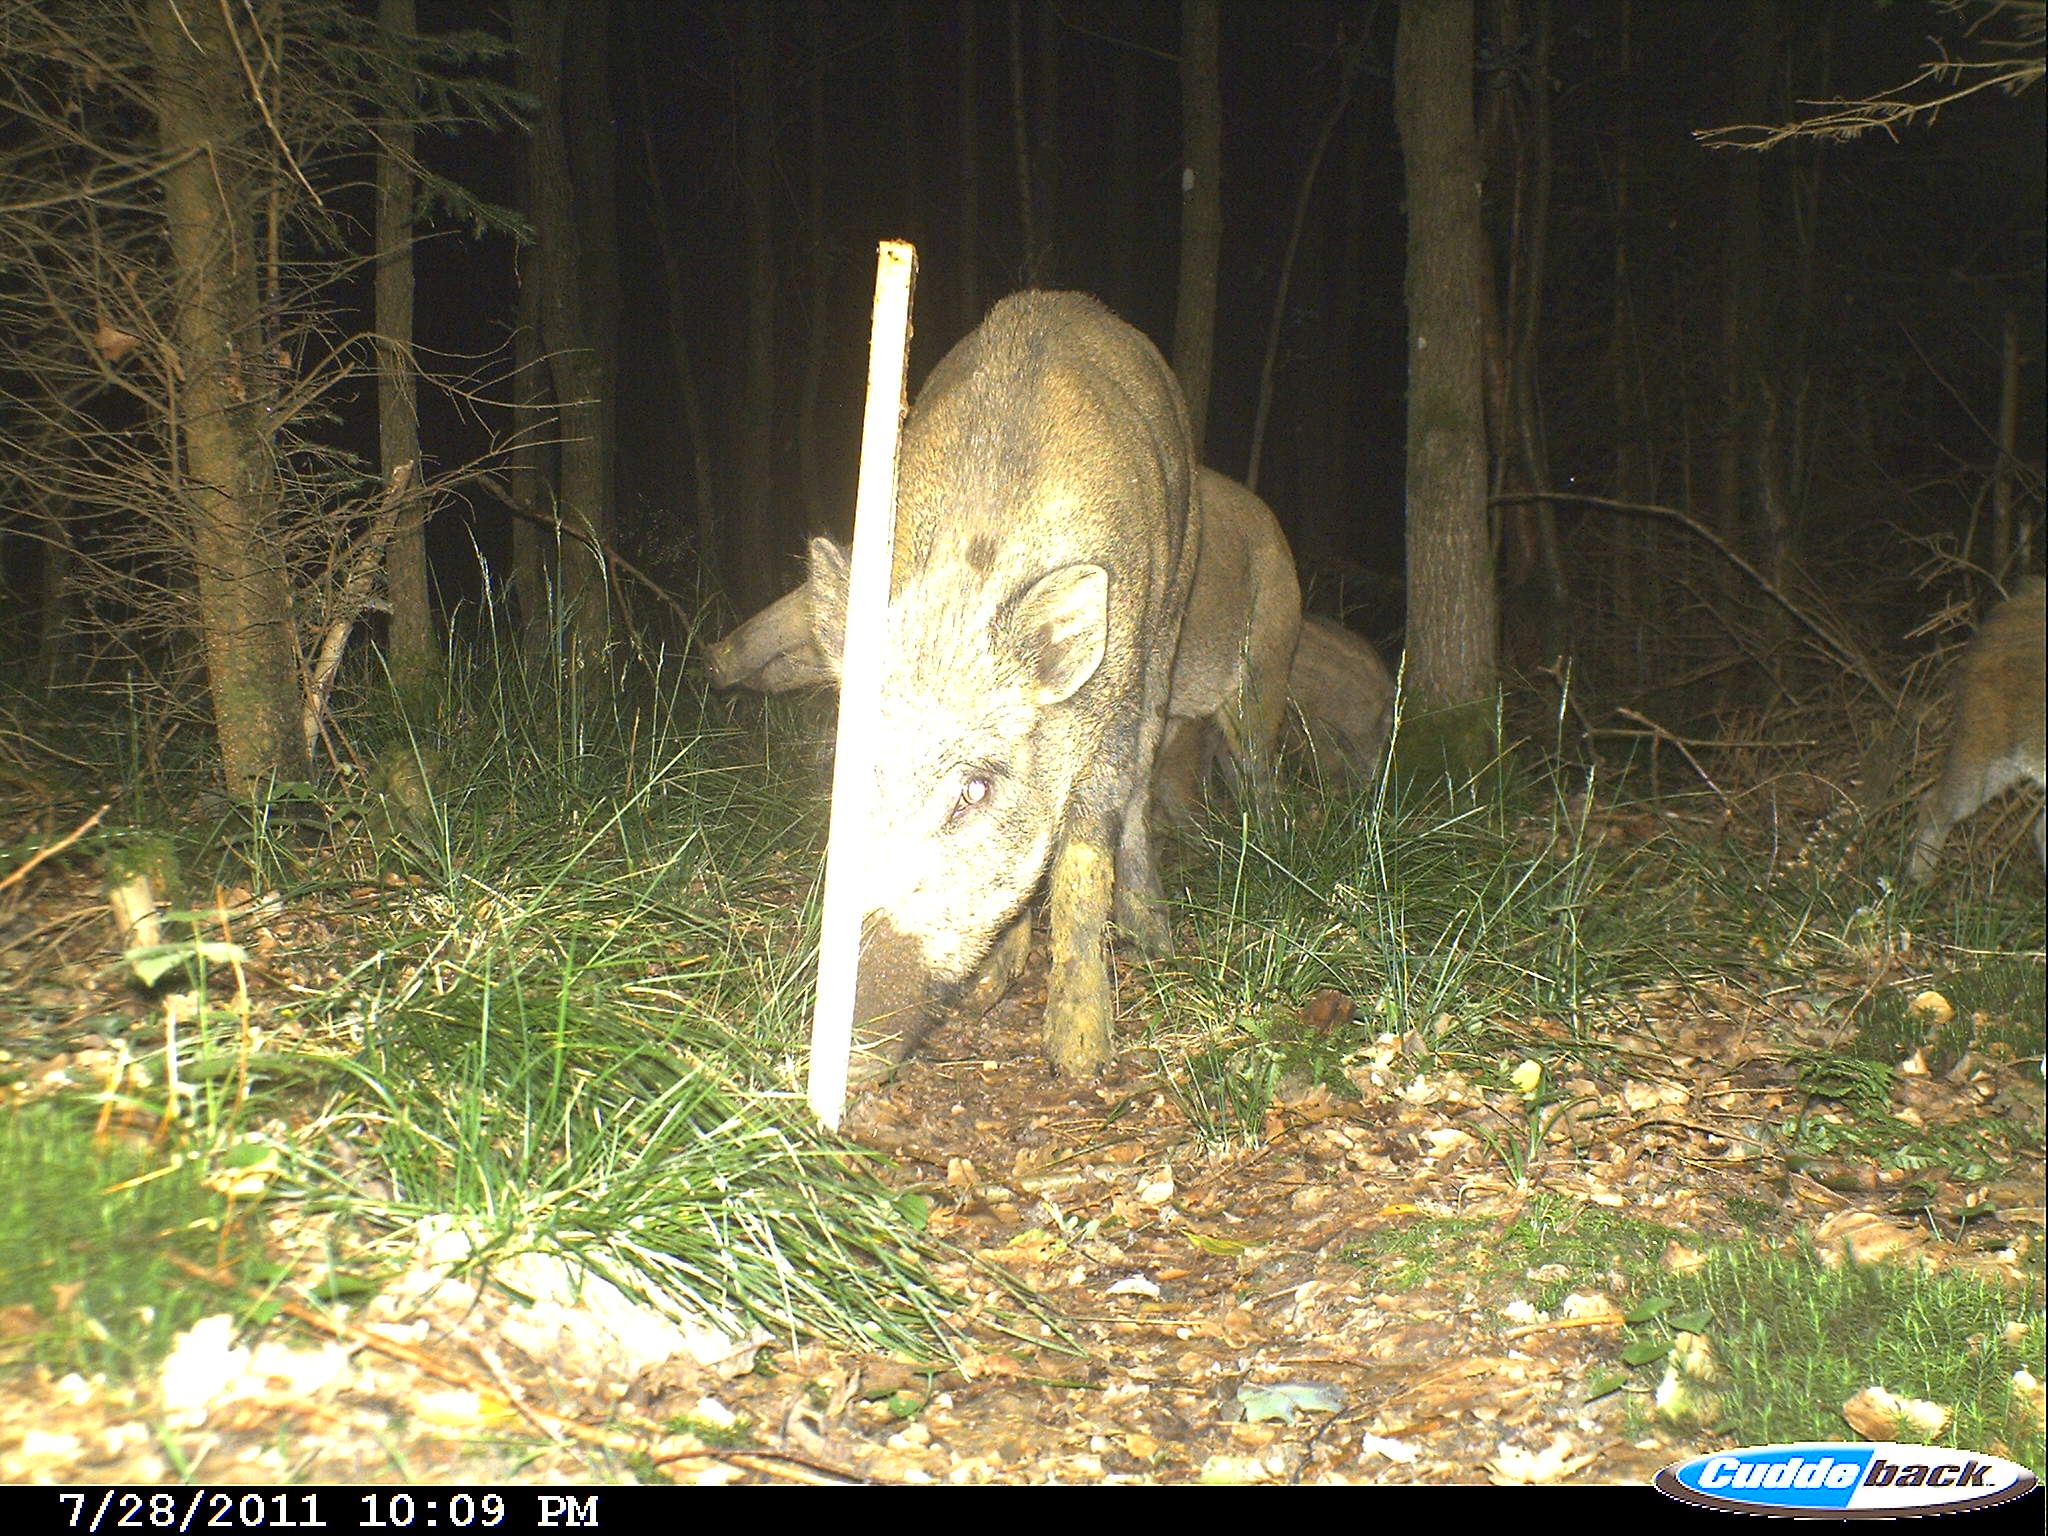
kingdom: Animalia
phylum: Chordata
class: Mammalia
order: Artiodactyla
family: Suidae
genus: Sus
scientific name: Sus scrofa
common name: Wild boar
